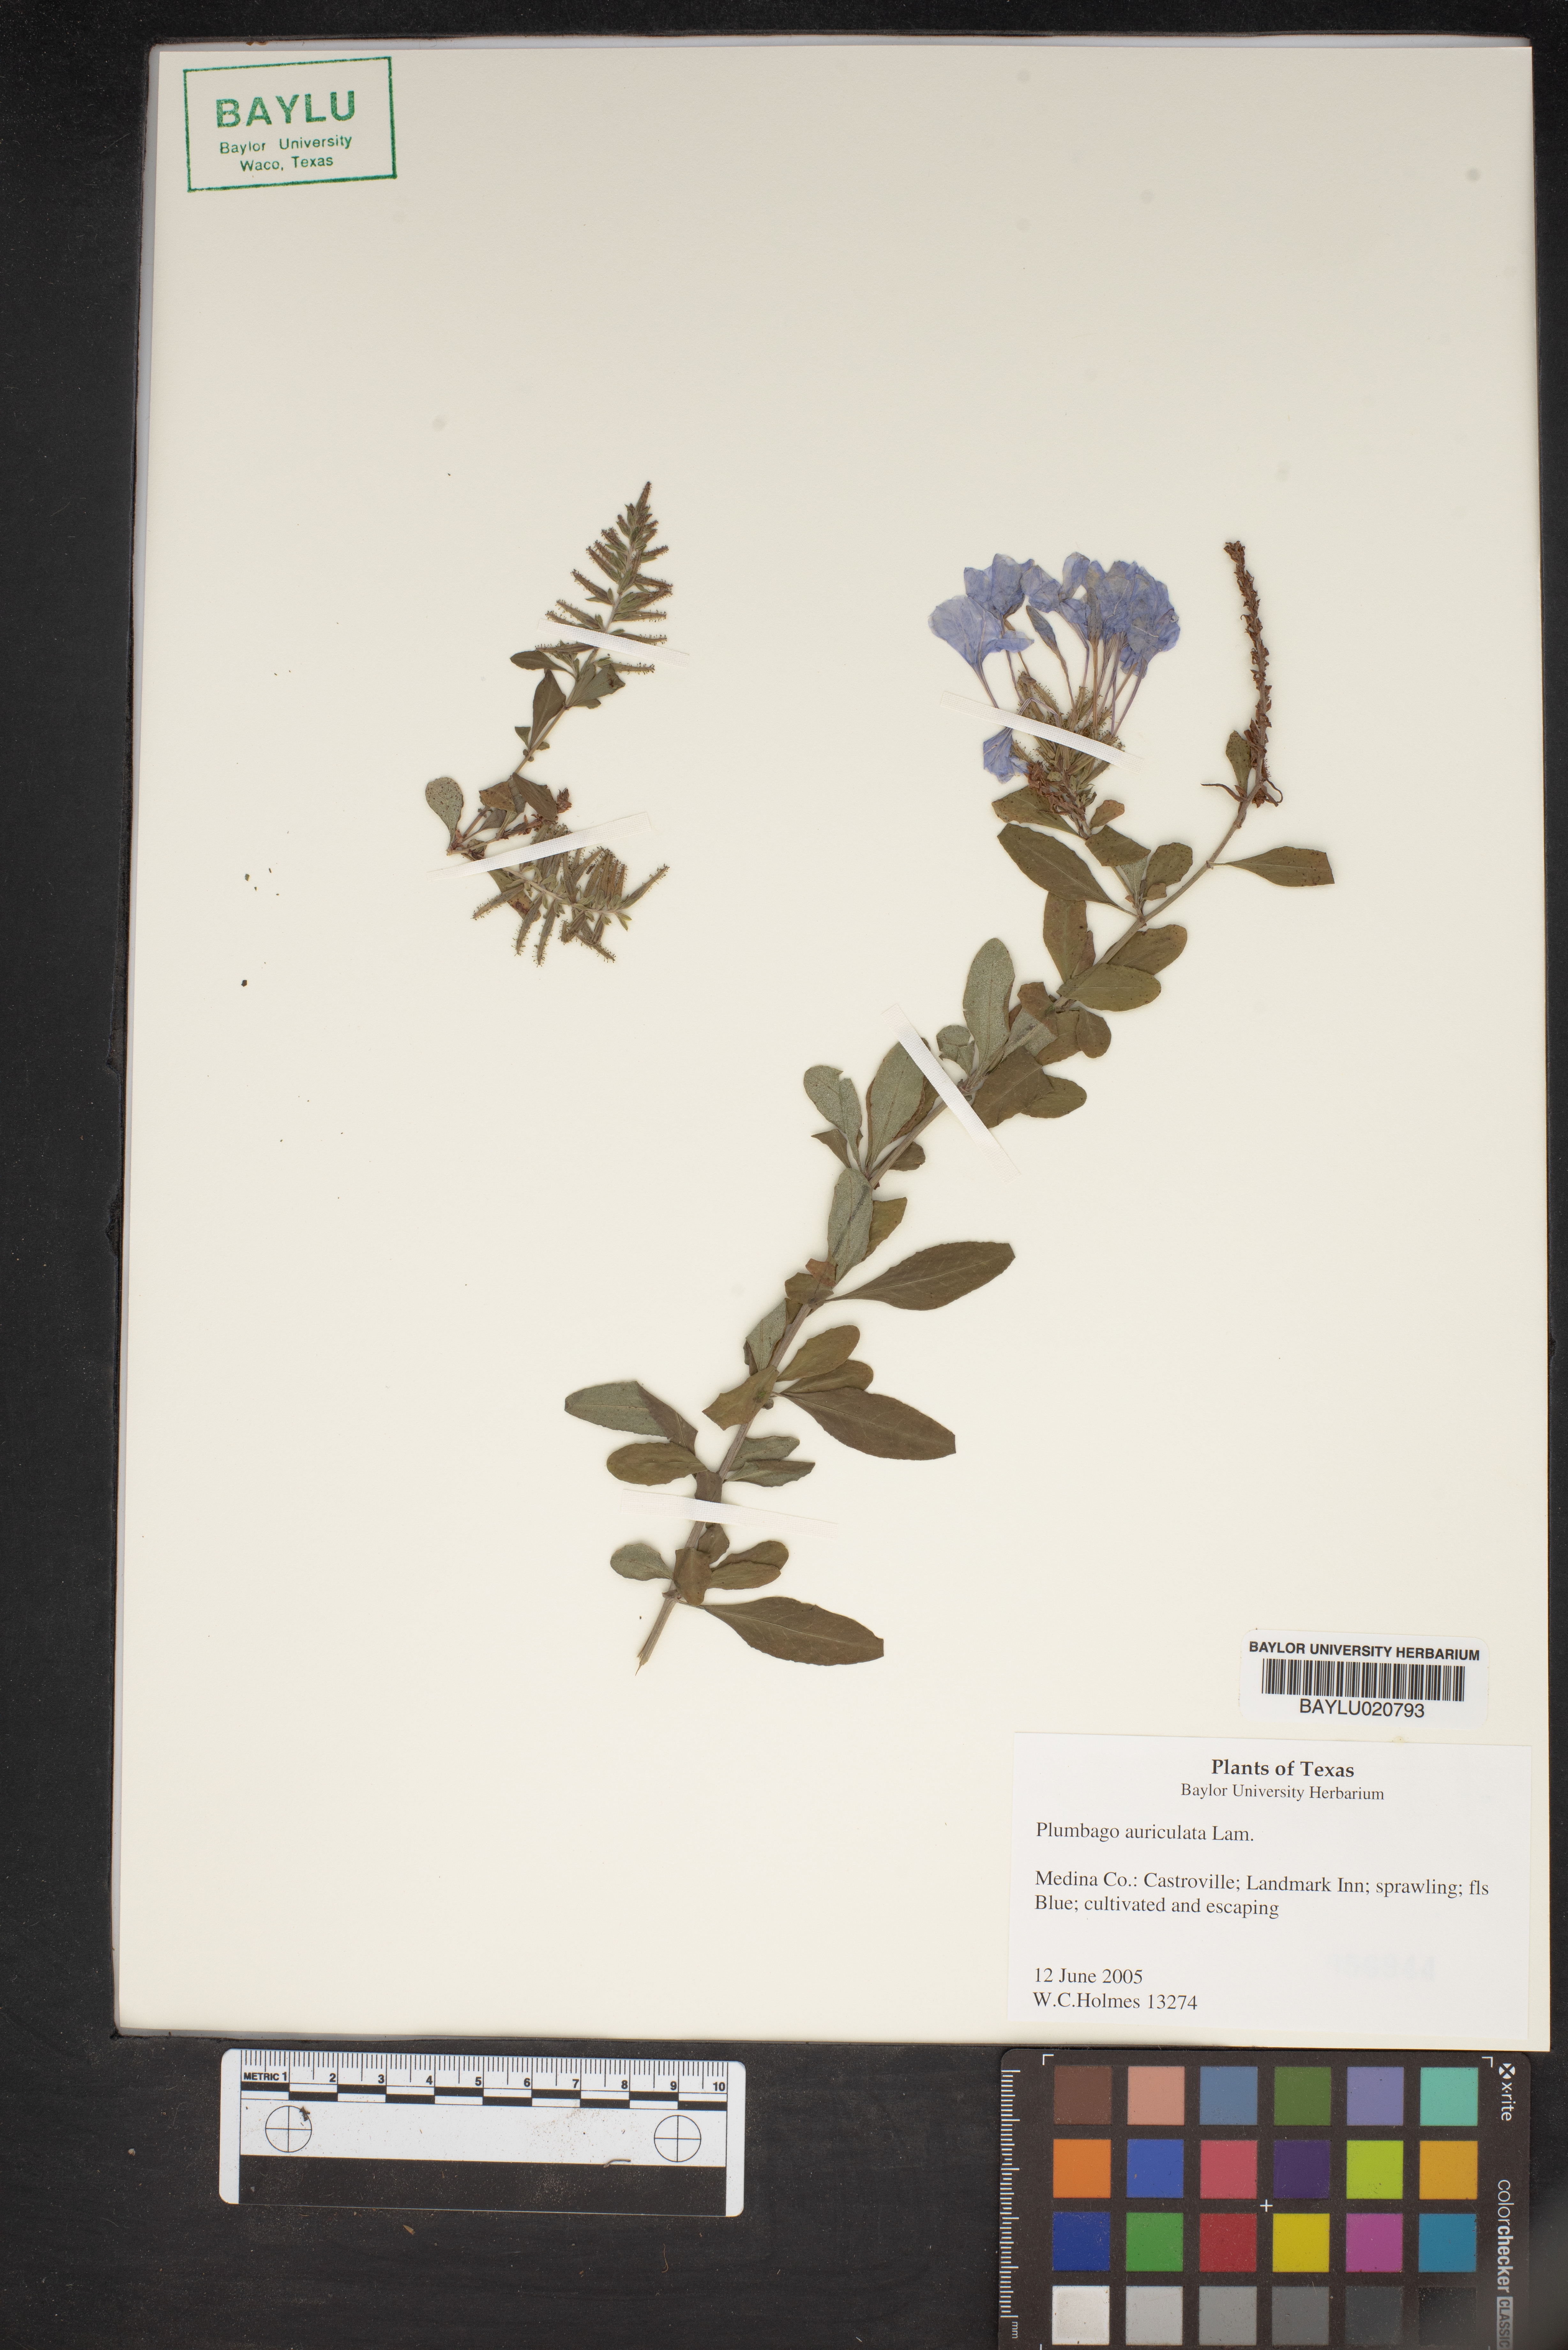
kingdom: Plantae
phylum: Tracheophyta
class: Magnoliopsida
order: Caryophyllales
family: Plumbaginaceae
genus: Plumbago
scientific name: Plumbago auriculata
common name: Cape leadwort
